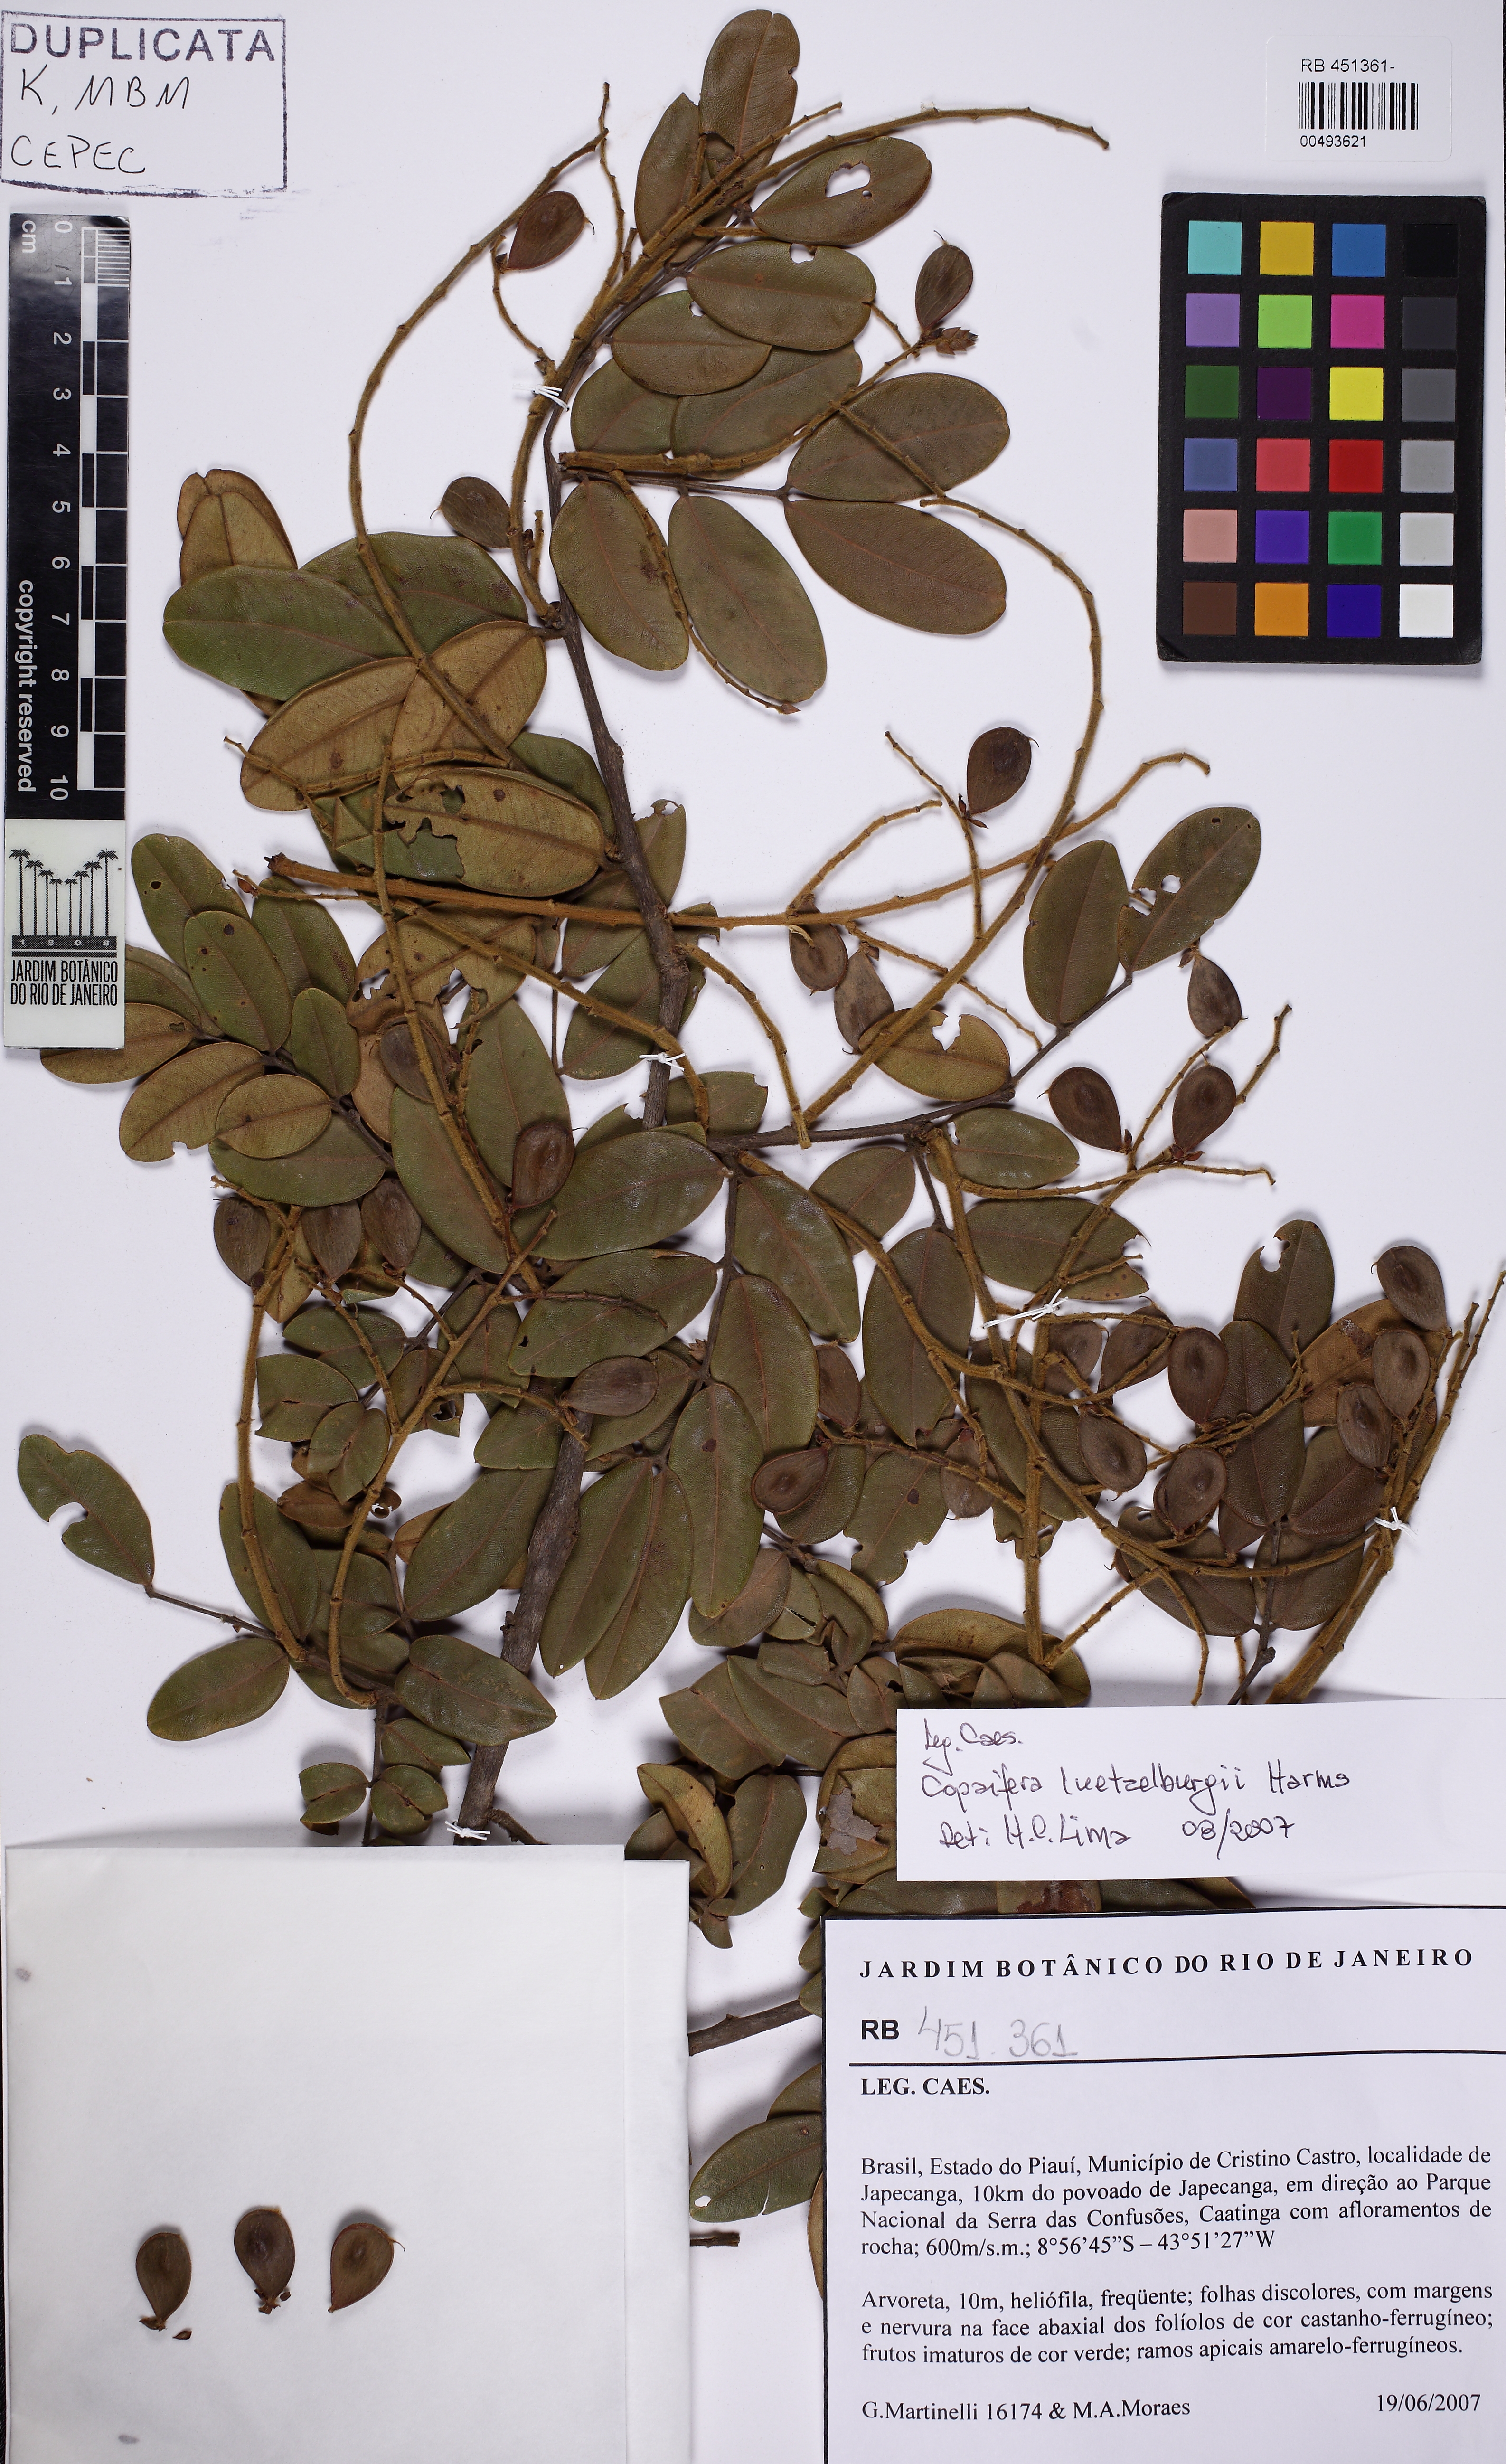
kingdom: Plantae
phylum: Tracheophyta
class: Magnoliopsida
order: Fabales
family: Fabaceae
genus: Copaifera
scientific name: Copaifera luetzelburgii
